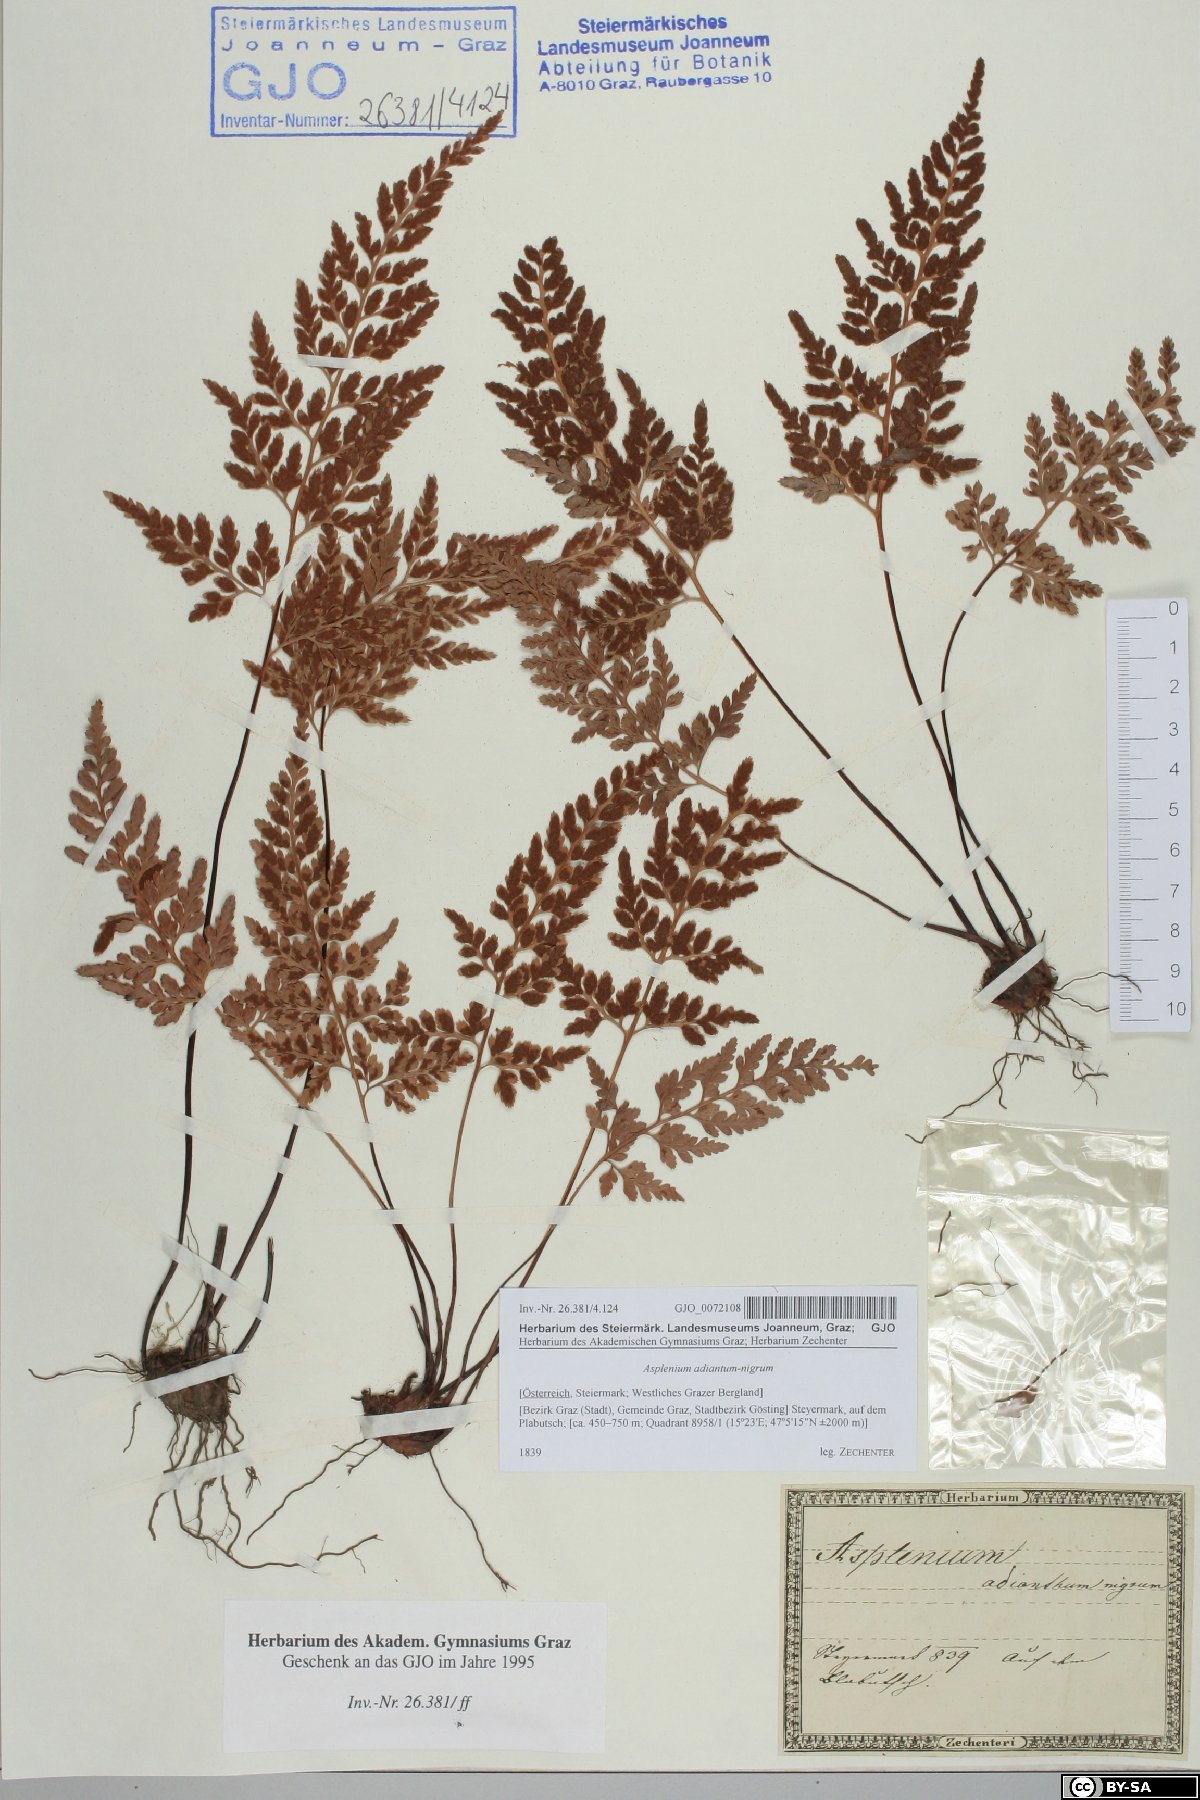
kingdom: Plantae
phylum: Tracheophyta
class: Polypodiopsida
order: Polypodiales
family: Aspleniaceae
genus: Asplenium
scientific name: Asplenium adiantum-nigrum
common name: Black spleenwort
